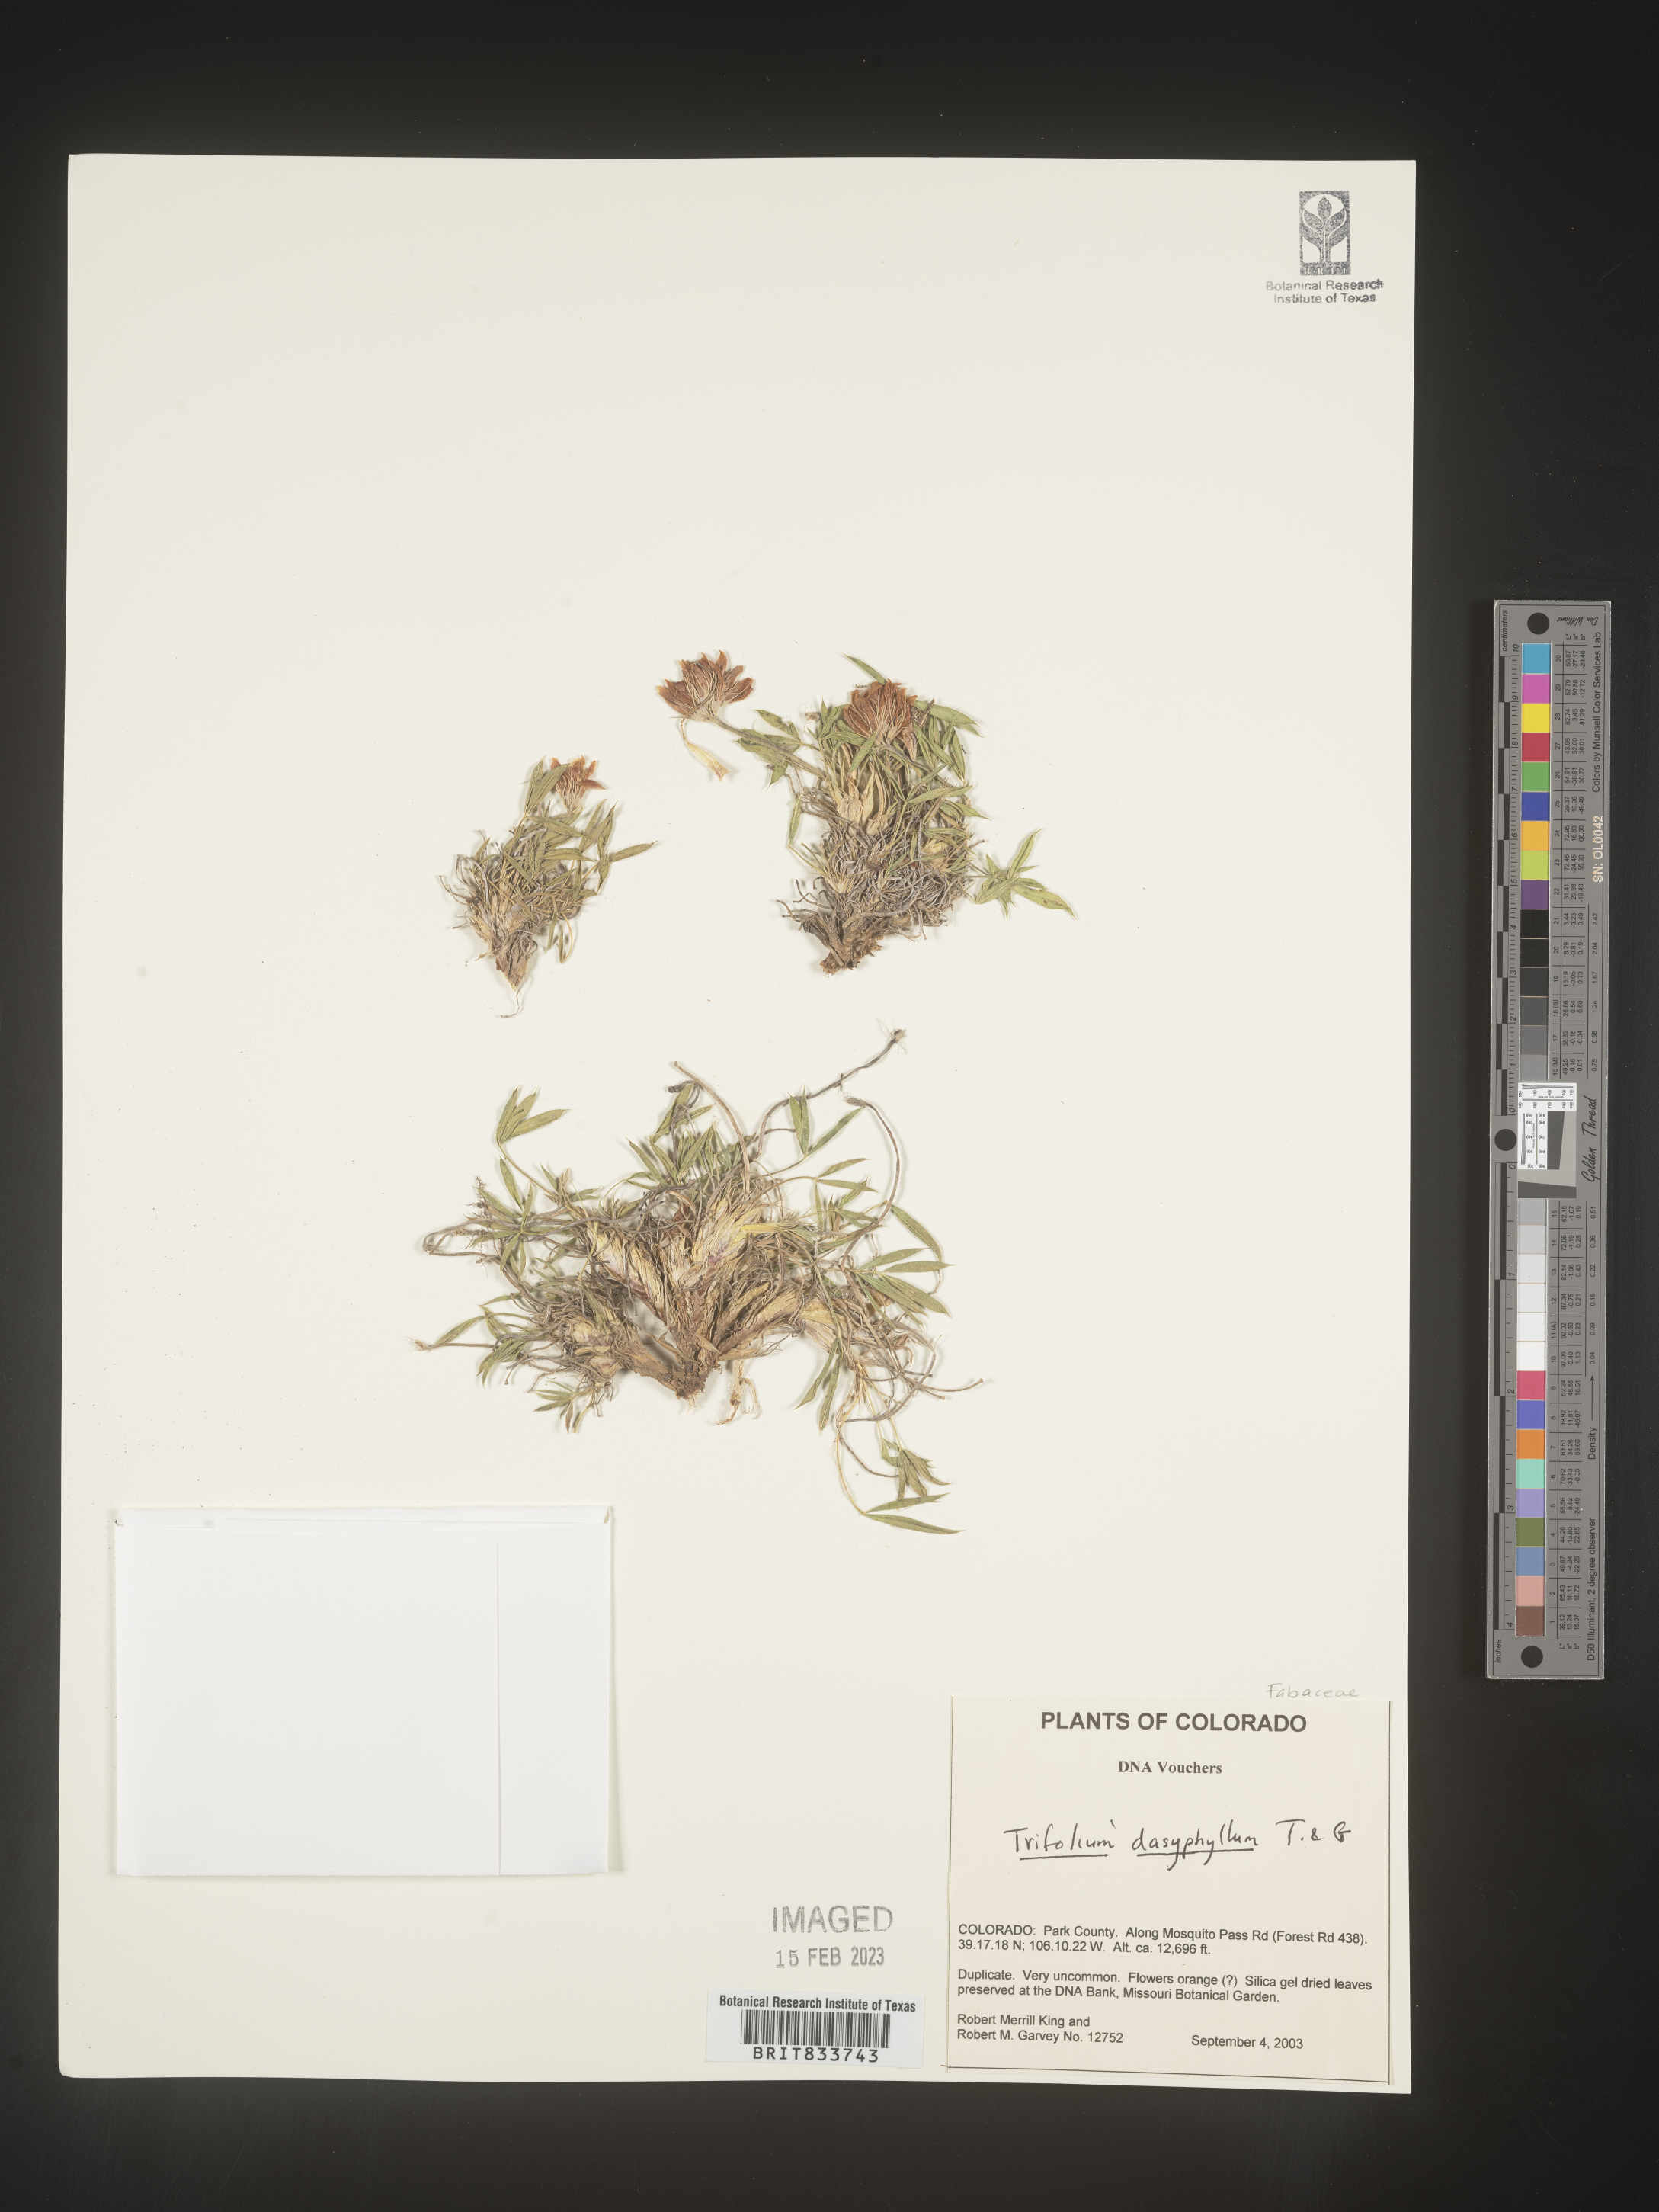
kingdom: Plantae
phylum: Tracheophyta
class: Magnoliopsida
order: Fabales
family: Fabaceae
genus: Trifolium
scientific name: Trifolium
